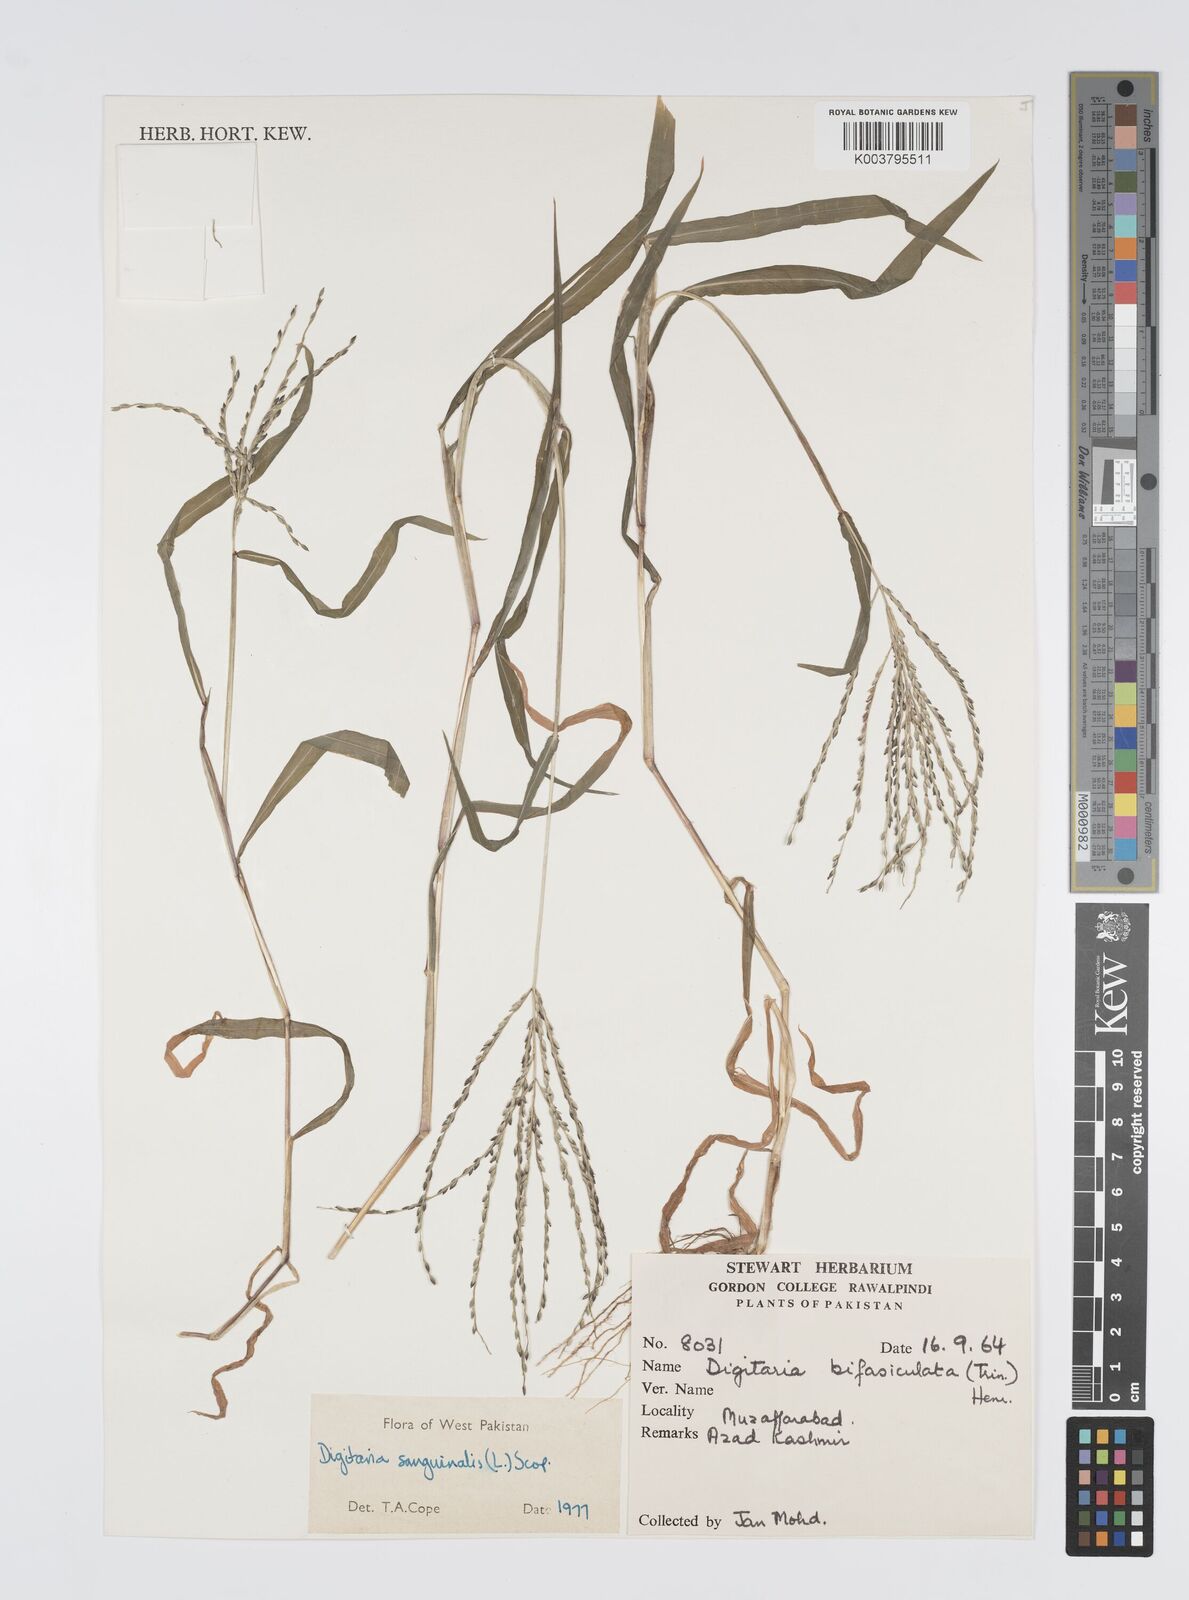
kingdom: Plantae
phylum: Tracheophyta
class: Liliopsida
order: Poales
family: Poaceae
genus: Digitaria
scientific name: Digitaria sanguinalis
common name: Hairy crabgrass
